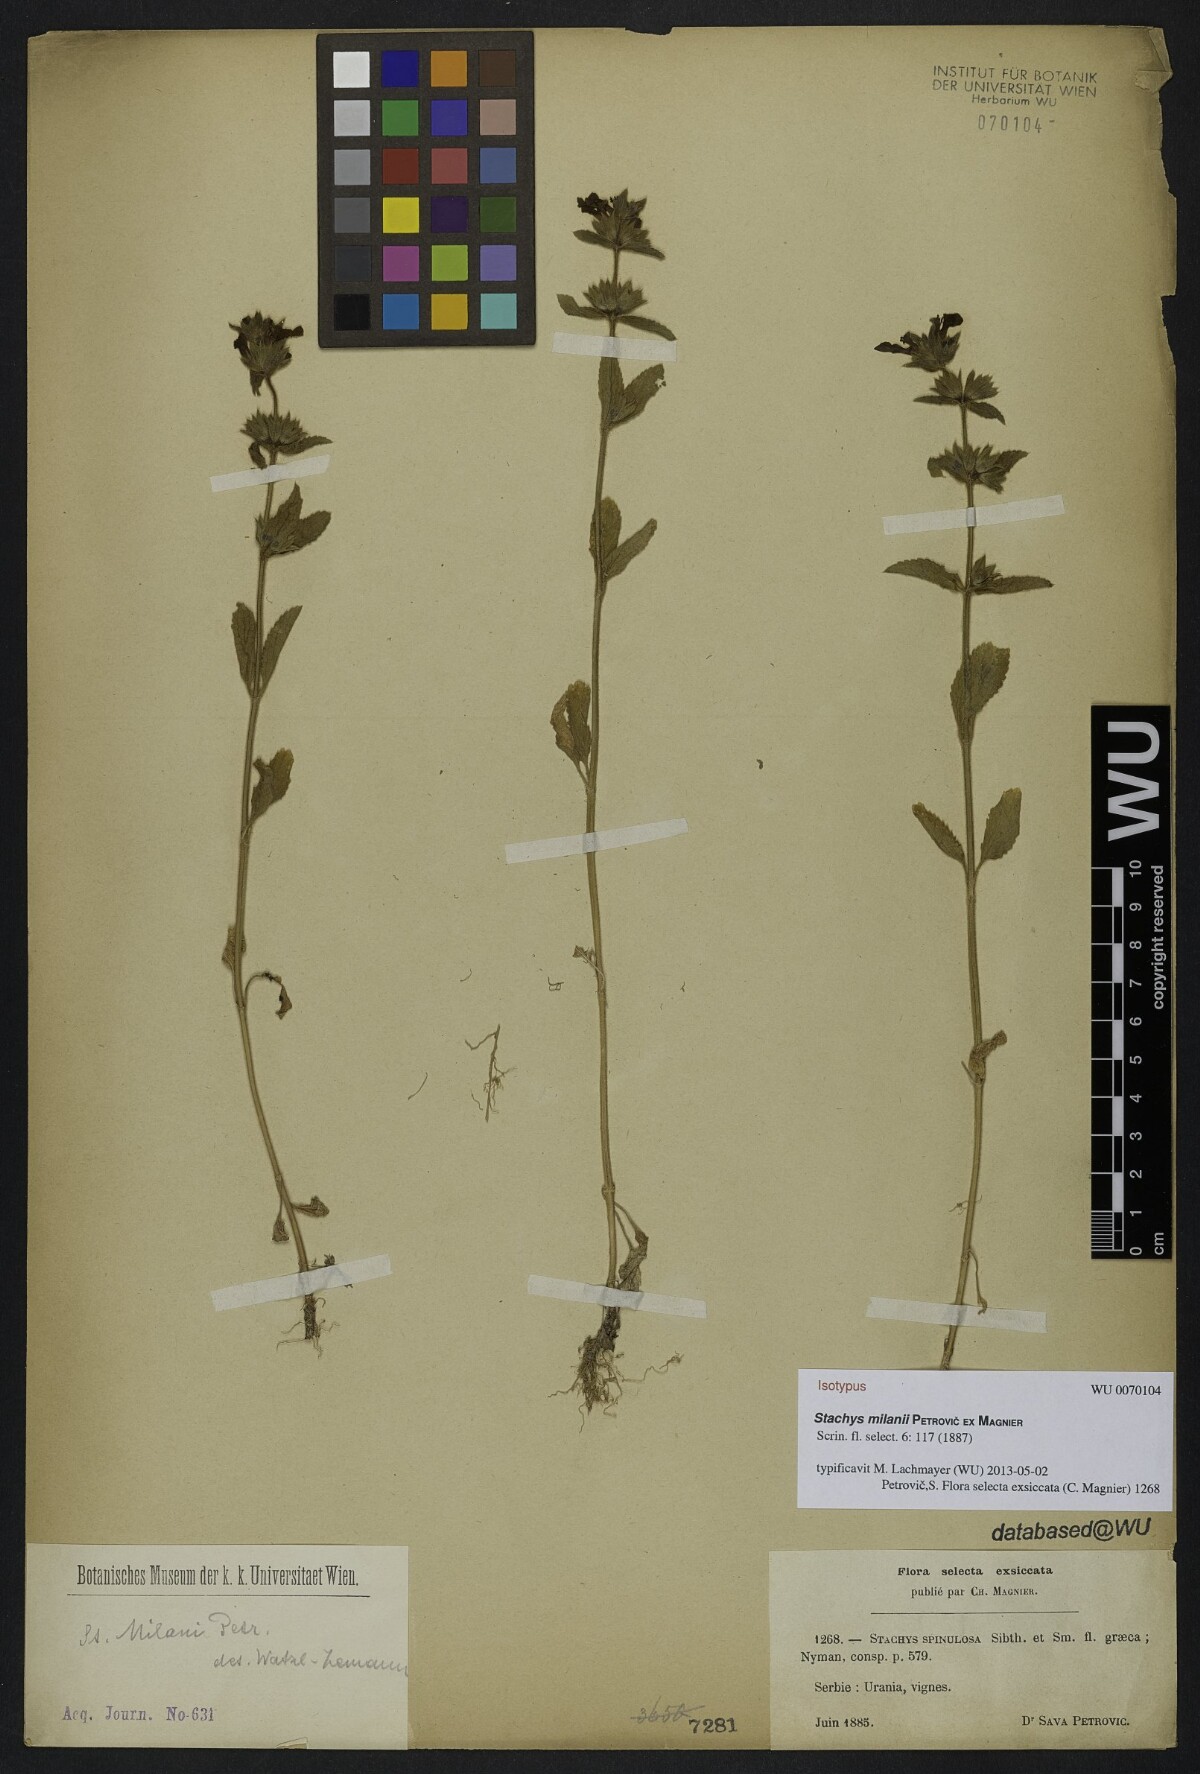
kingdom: Plantae
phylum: Tracheophyta
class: Magnoliopsida
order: Lamiales
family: Lamiaceae
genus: Stachys
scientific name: Stachys milanii
